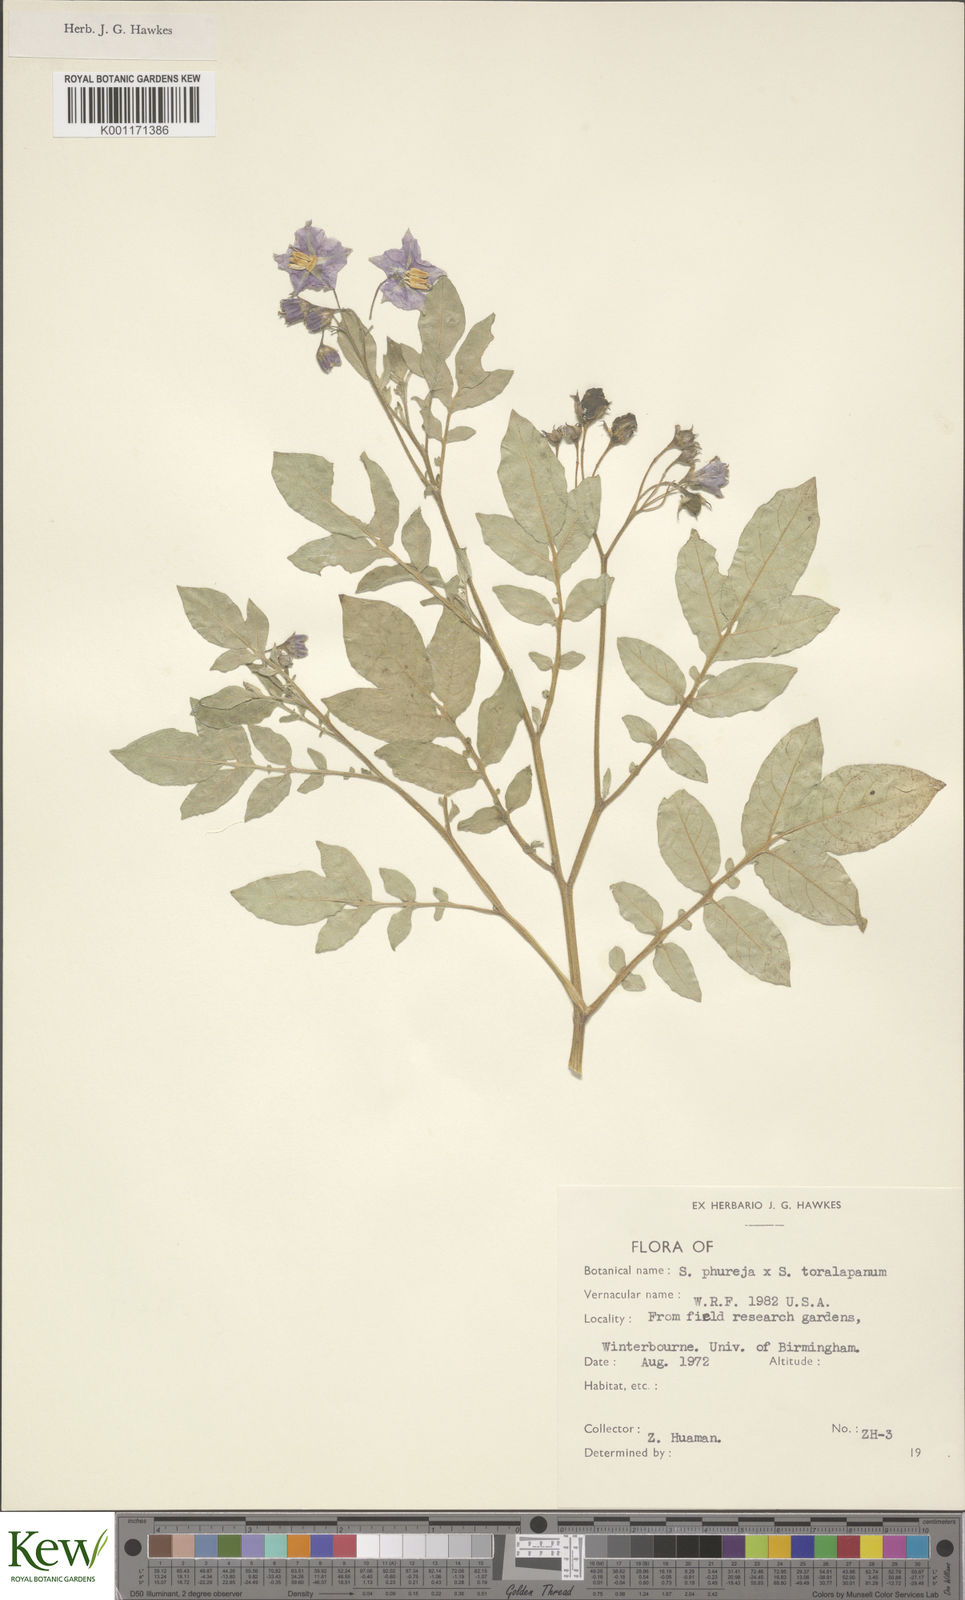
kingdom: Plantae
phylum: Tracheophyta
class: Magnoliopsida
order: Solanales
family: Solanaceae
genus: Solanum
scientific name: Solanum tuberosum
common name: Potato
